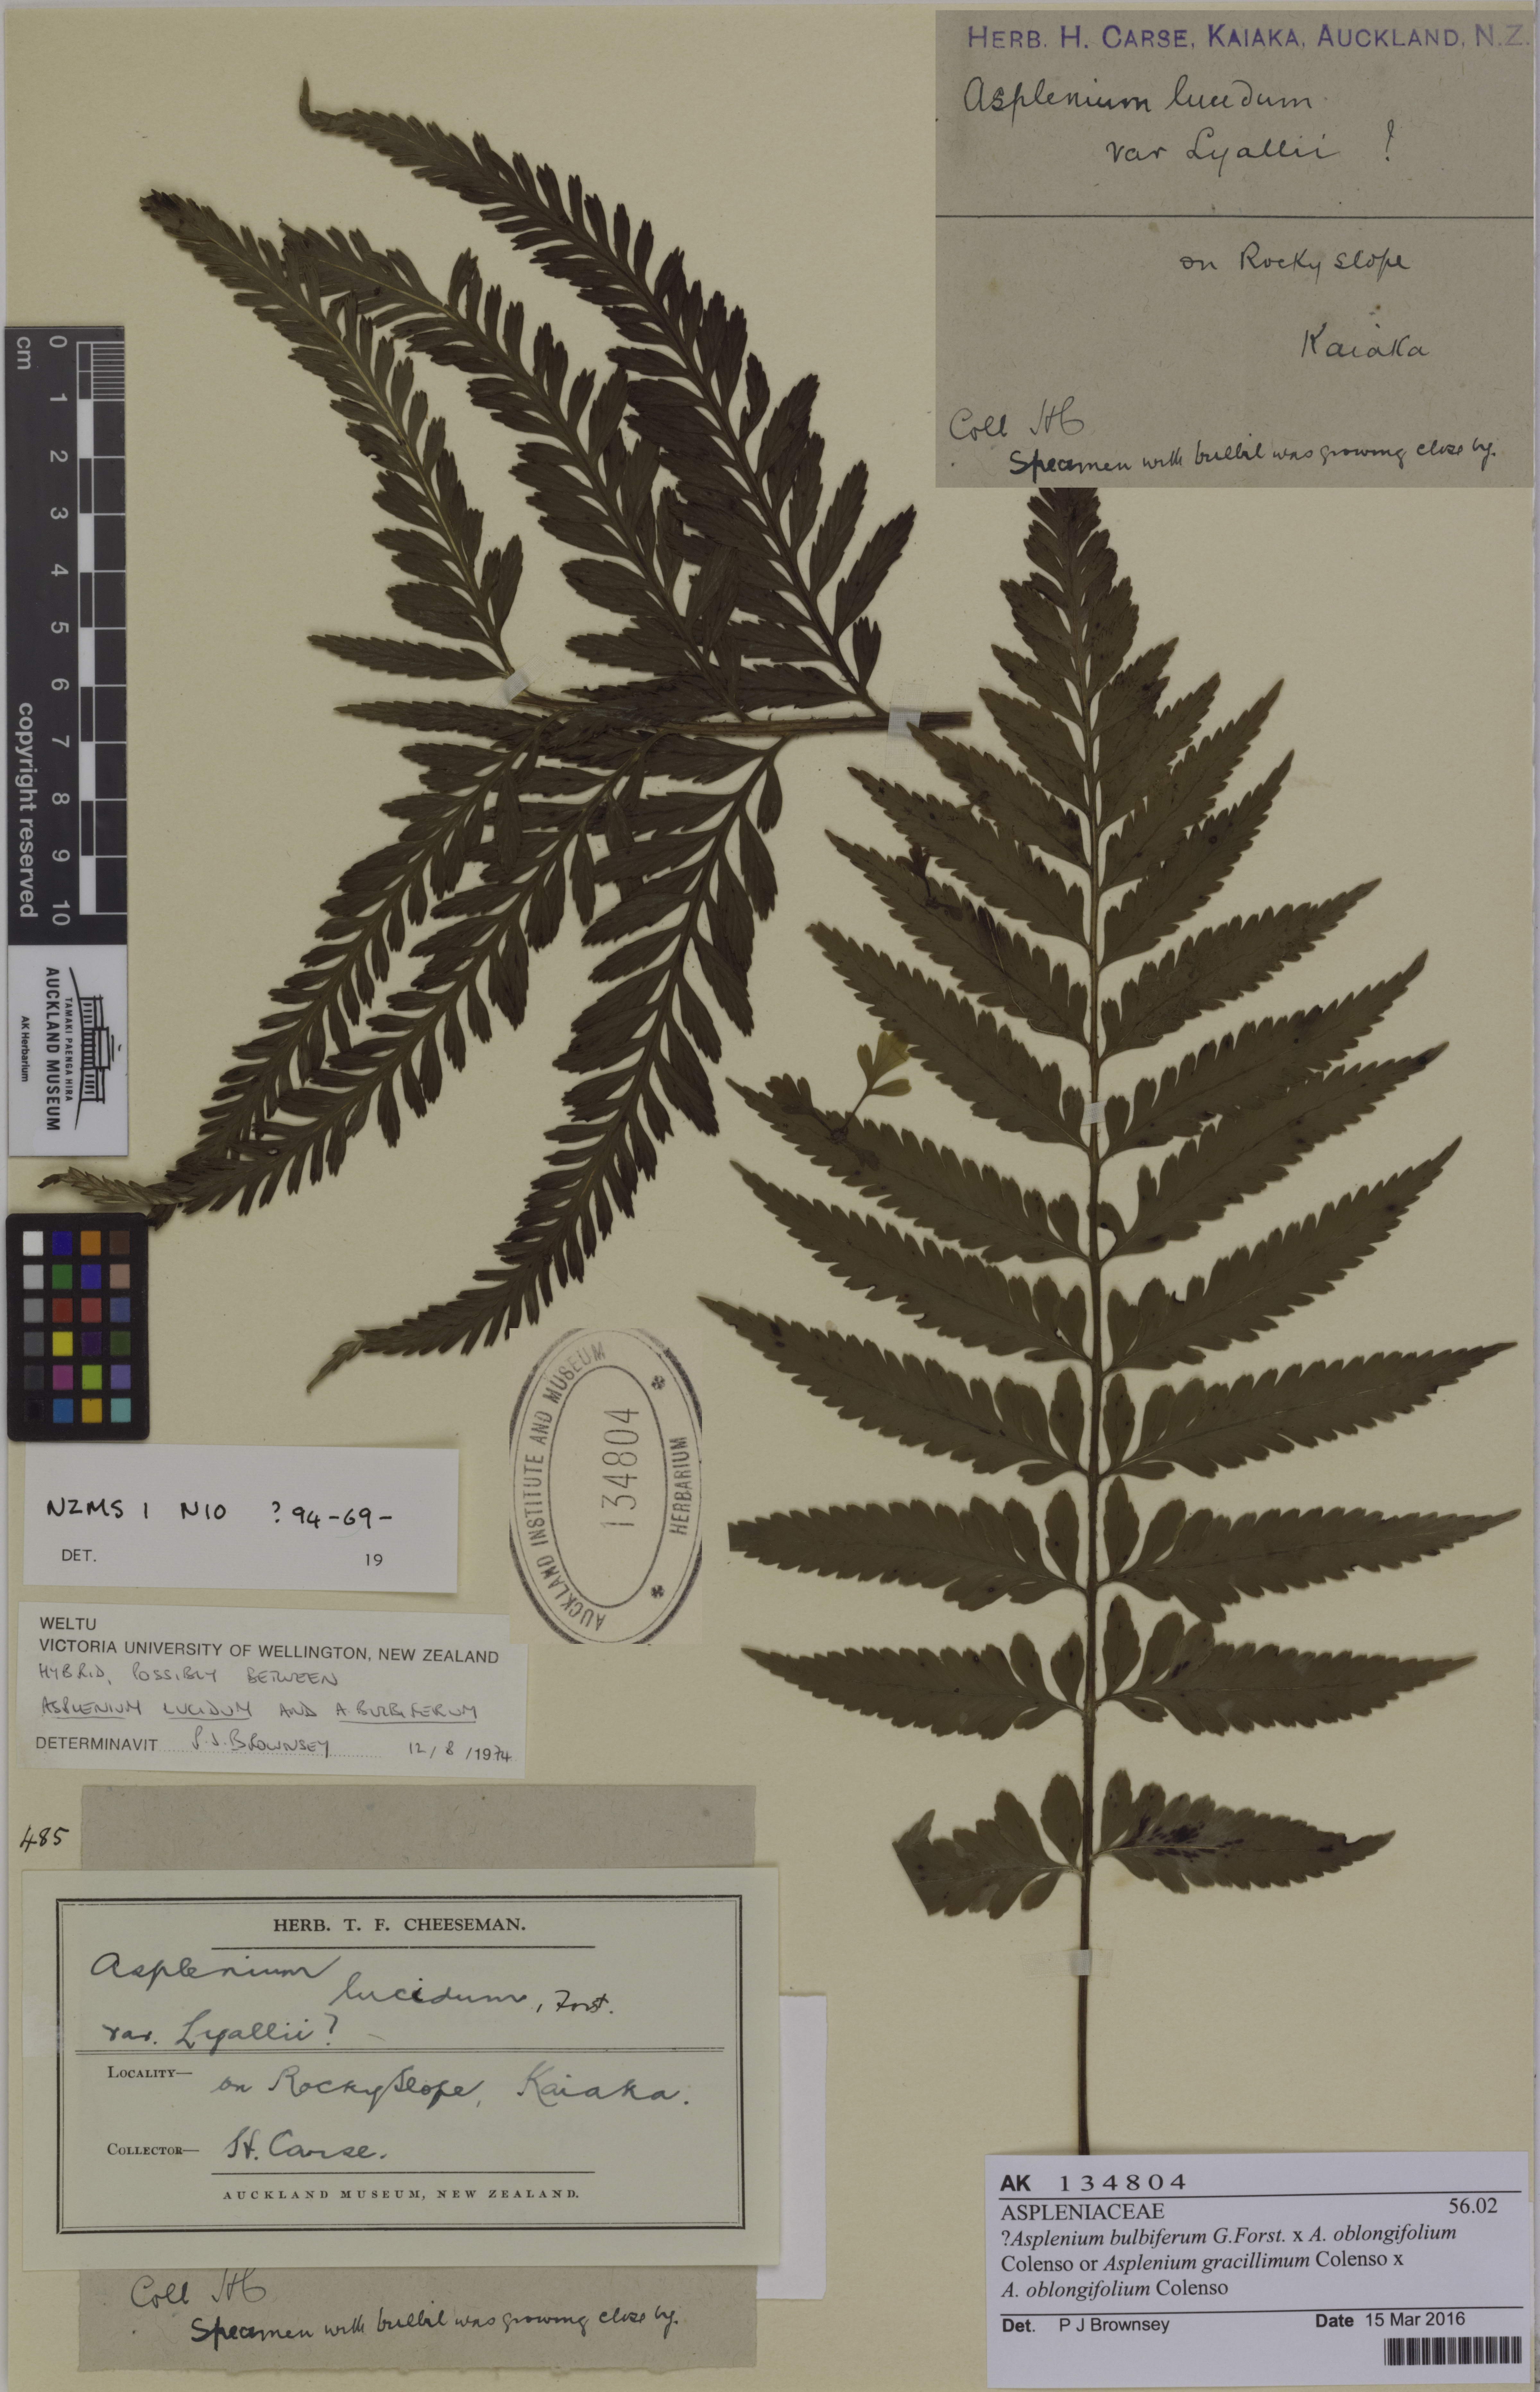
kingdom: Plantae
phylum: Tracheophyta
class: Polypodiopsida
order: Polypodiales
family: Aspleniaceae
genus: Asplenium
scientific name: Asplenium
